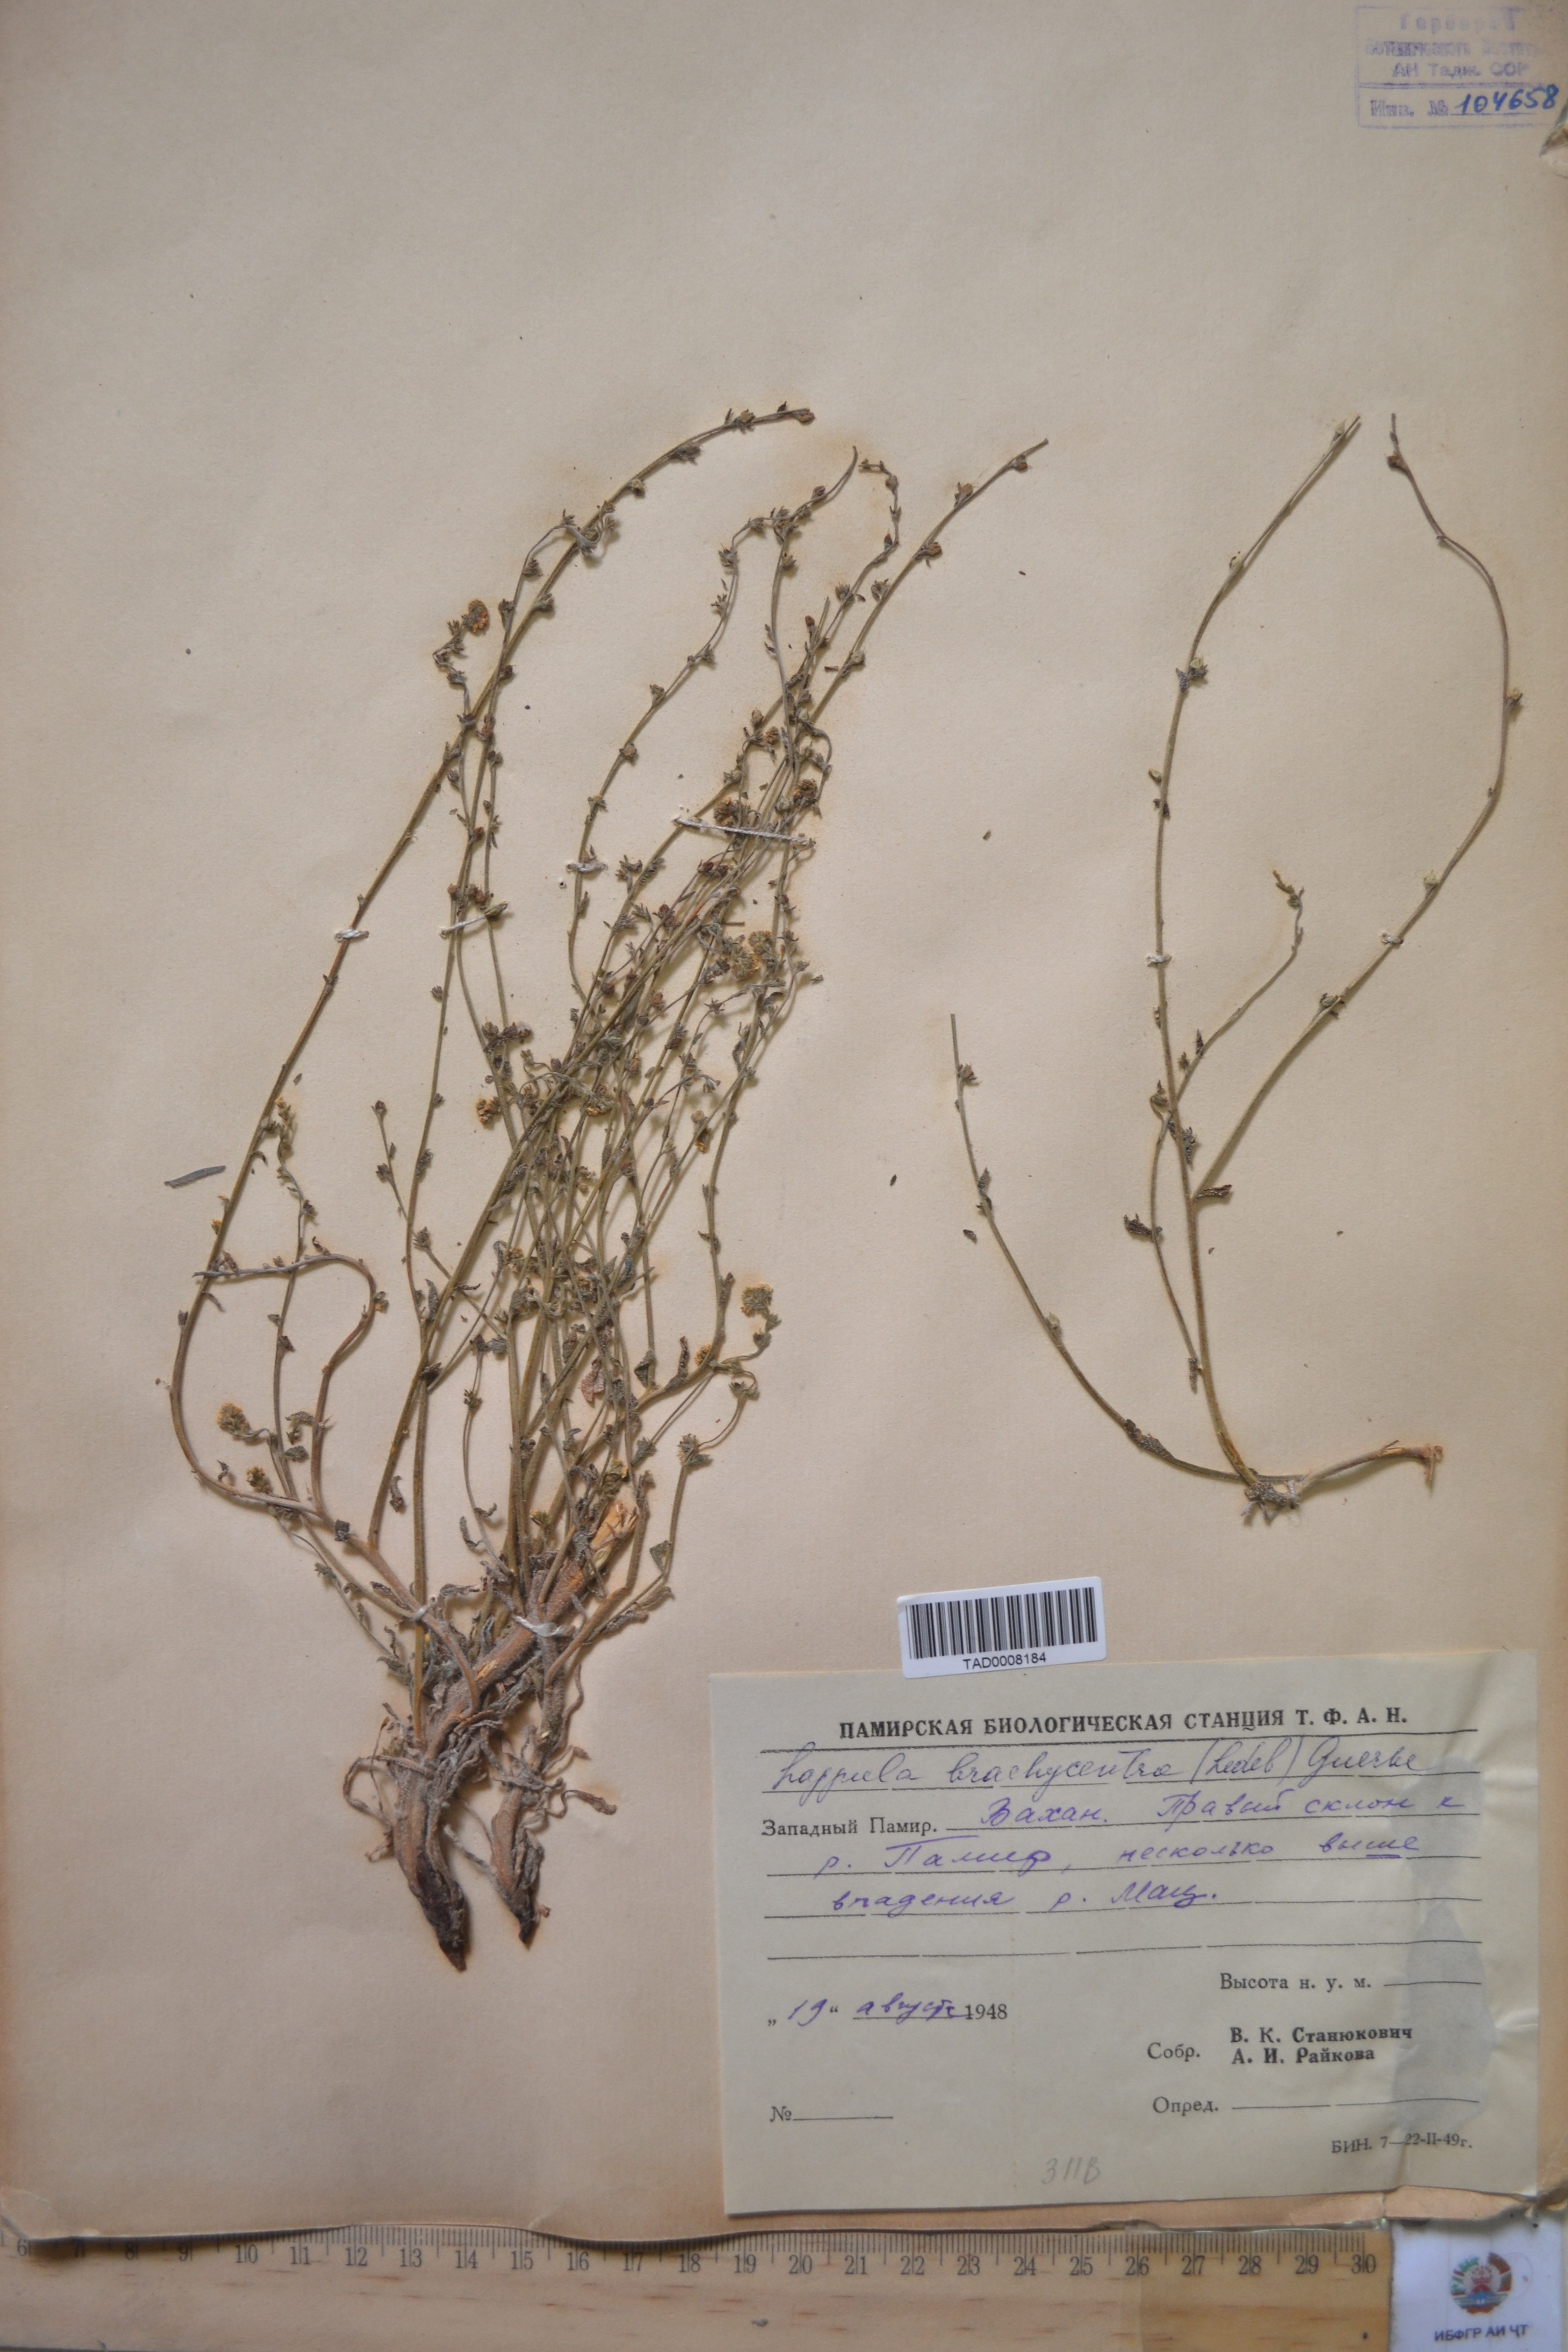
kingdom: Plantae
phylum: Tracheophyta
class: Magnoliopsida
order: Boraginales
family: Boraginaceae
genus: Lappula
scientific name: Lappula brachycentra
